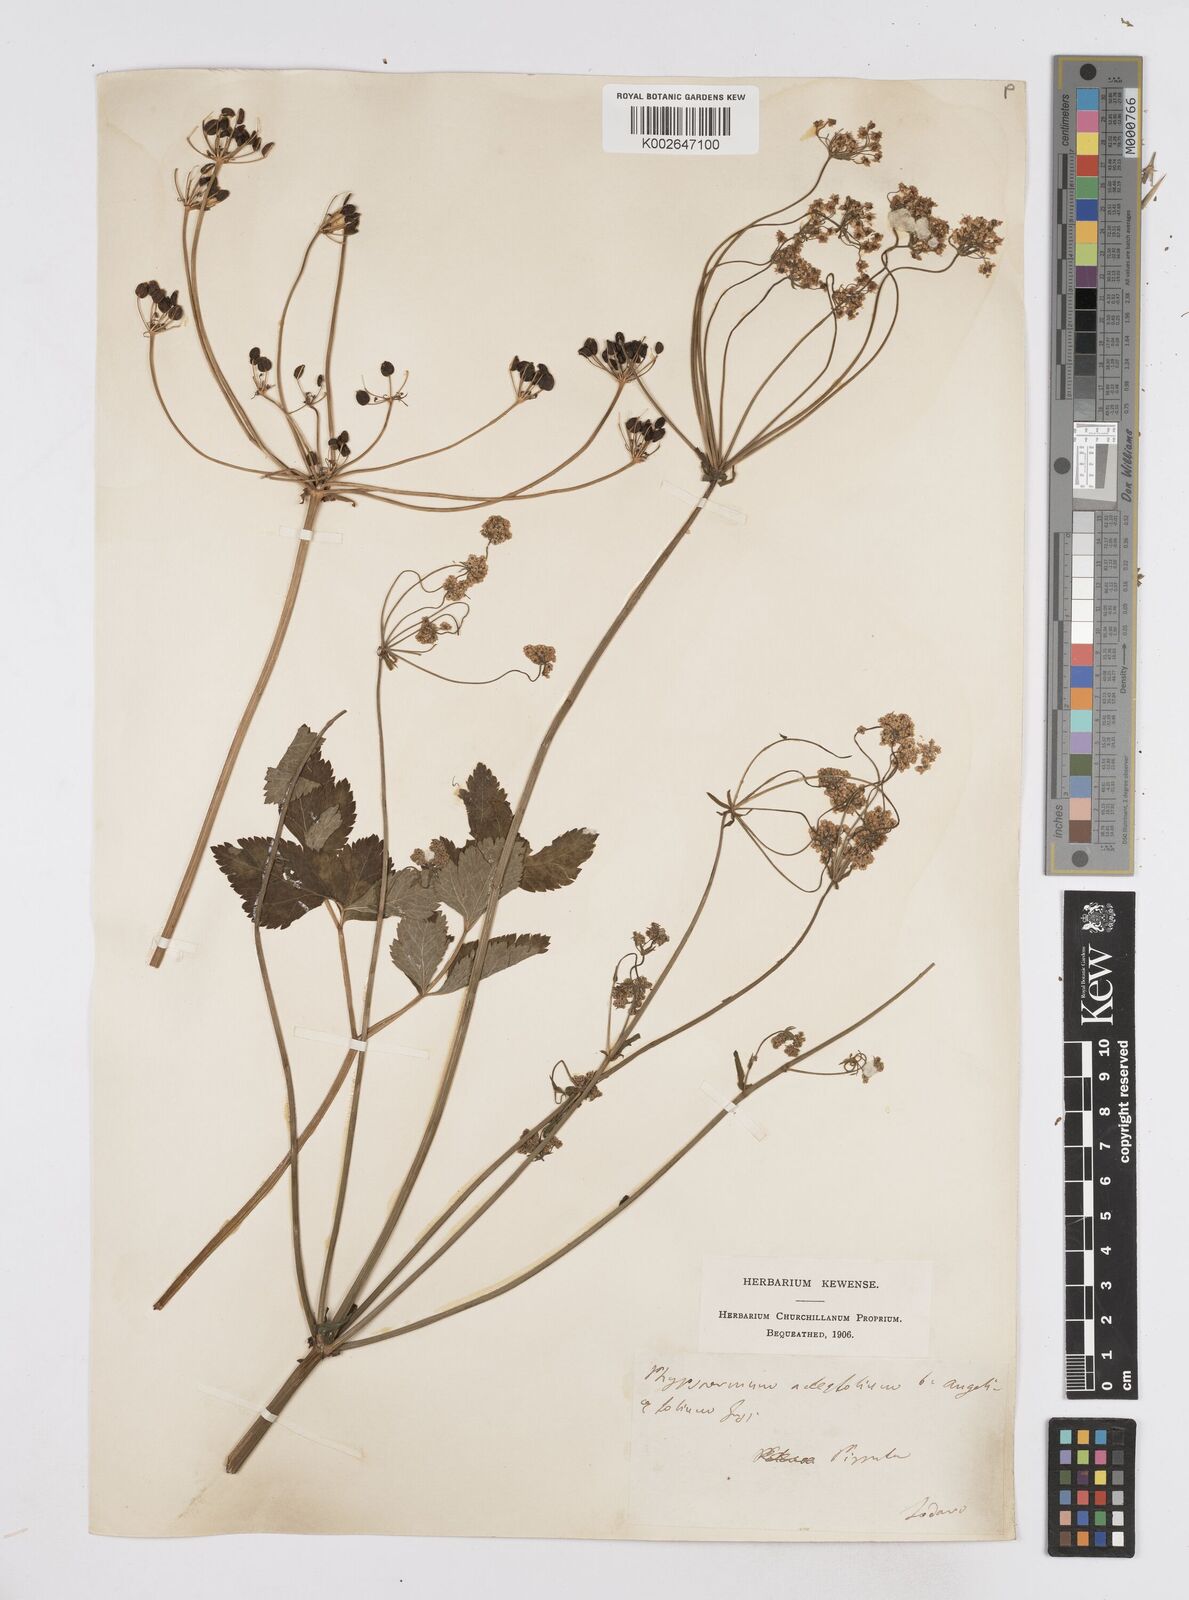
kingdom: Plantae
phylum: Tracheophyta
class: Magnoliopsida
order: Apiales
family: Apiaceae
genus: Physospermum
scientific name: Physospermum verticillatum
